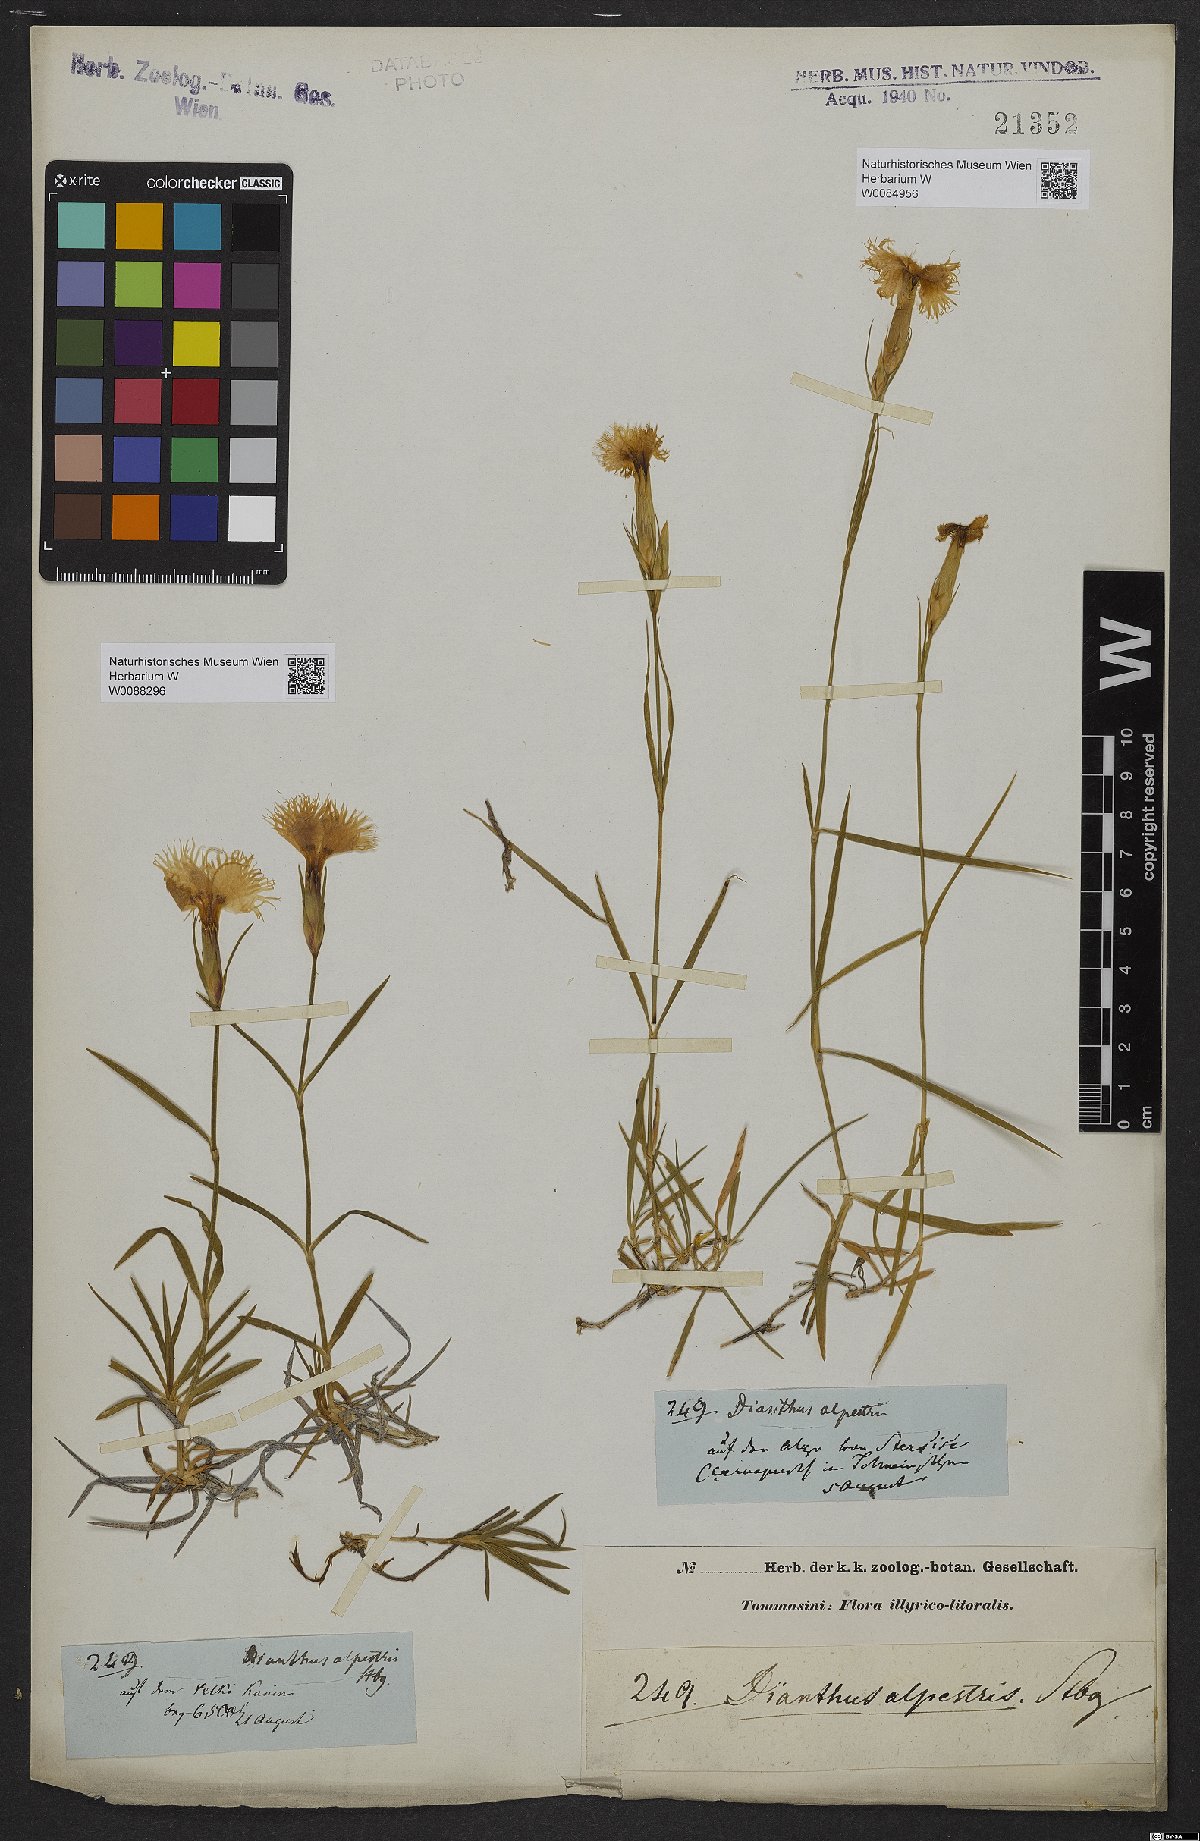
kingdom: Plantae
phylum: Tracheophyta
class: Magnoliopsida
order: Caryophyllales
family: Caryophyllaceae
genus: Dianthus
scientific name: Dianthus hyssopifolius
